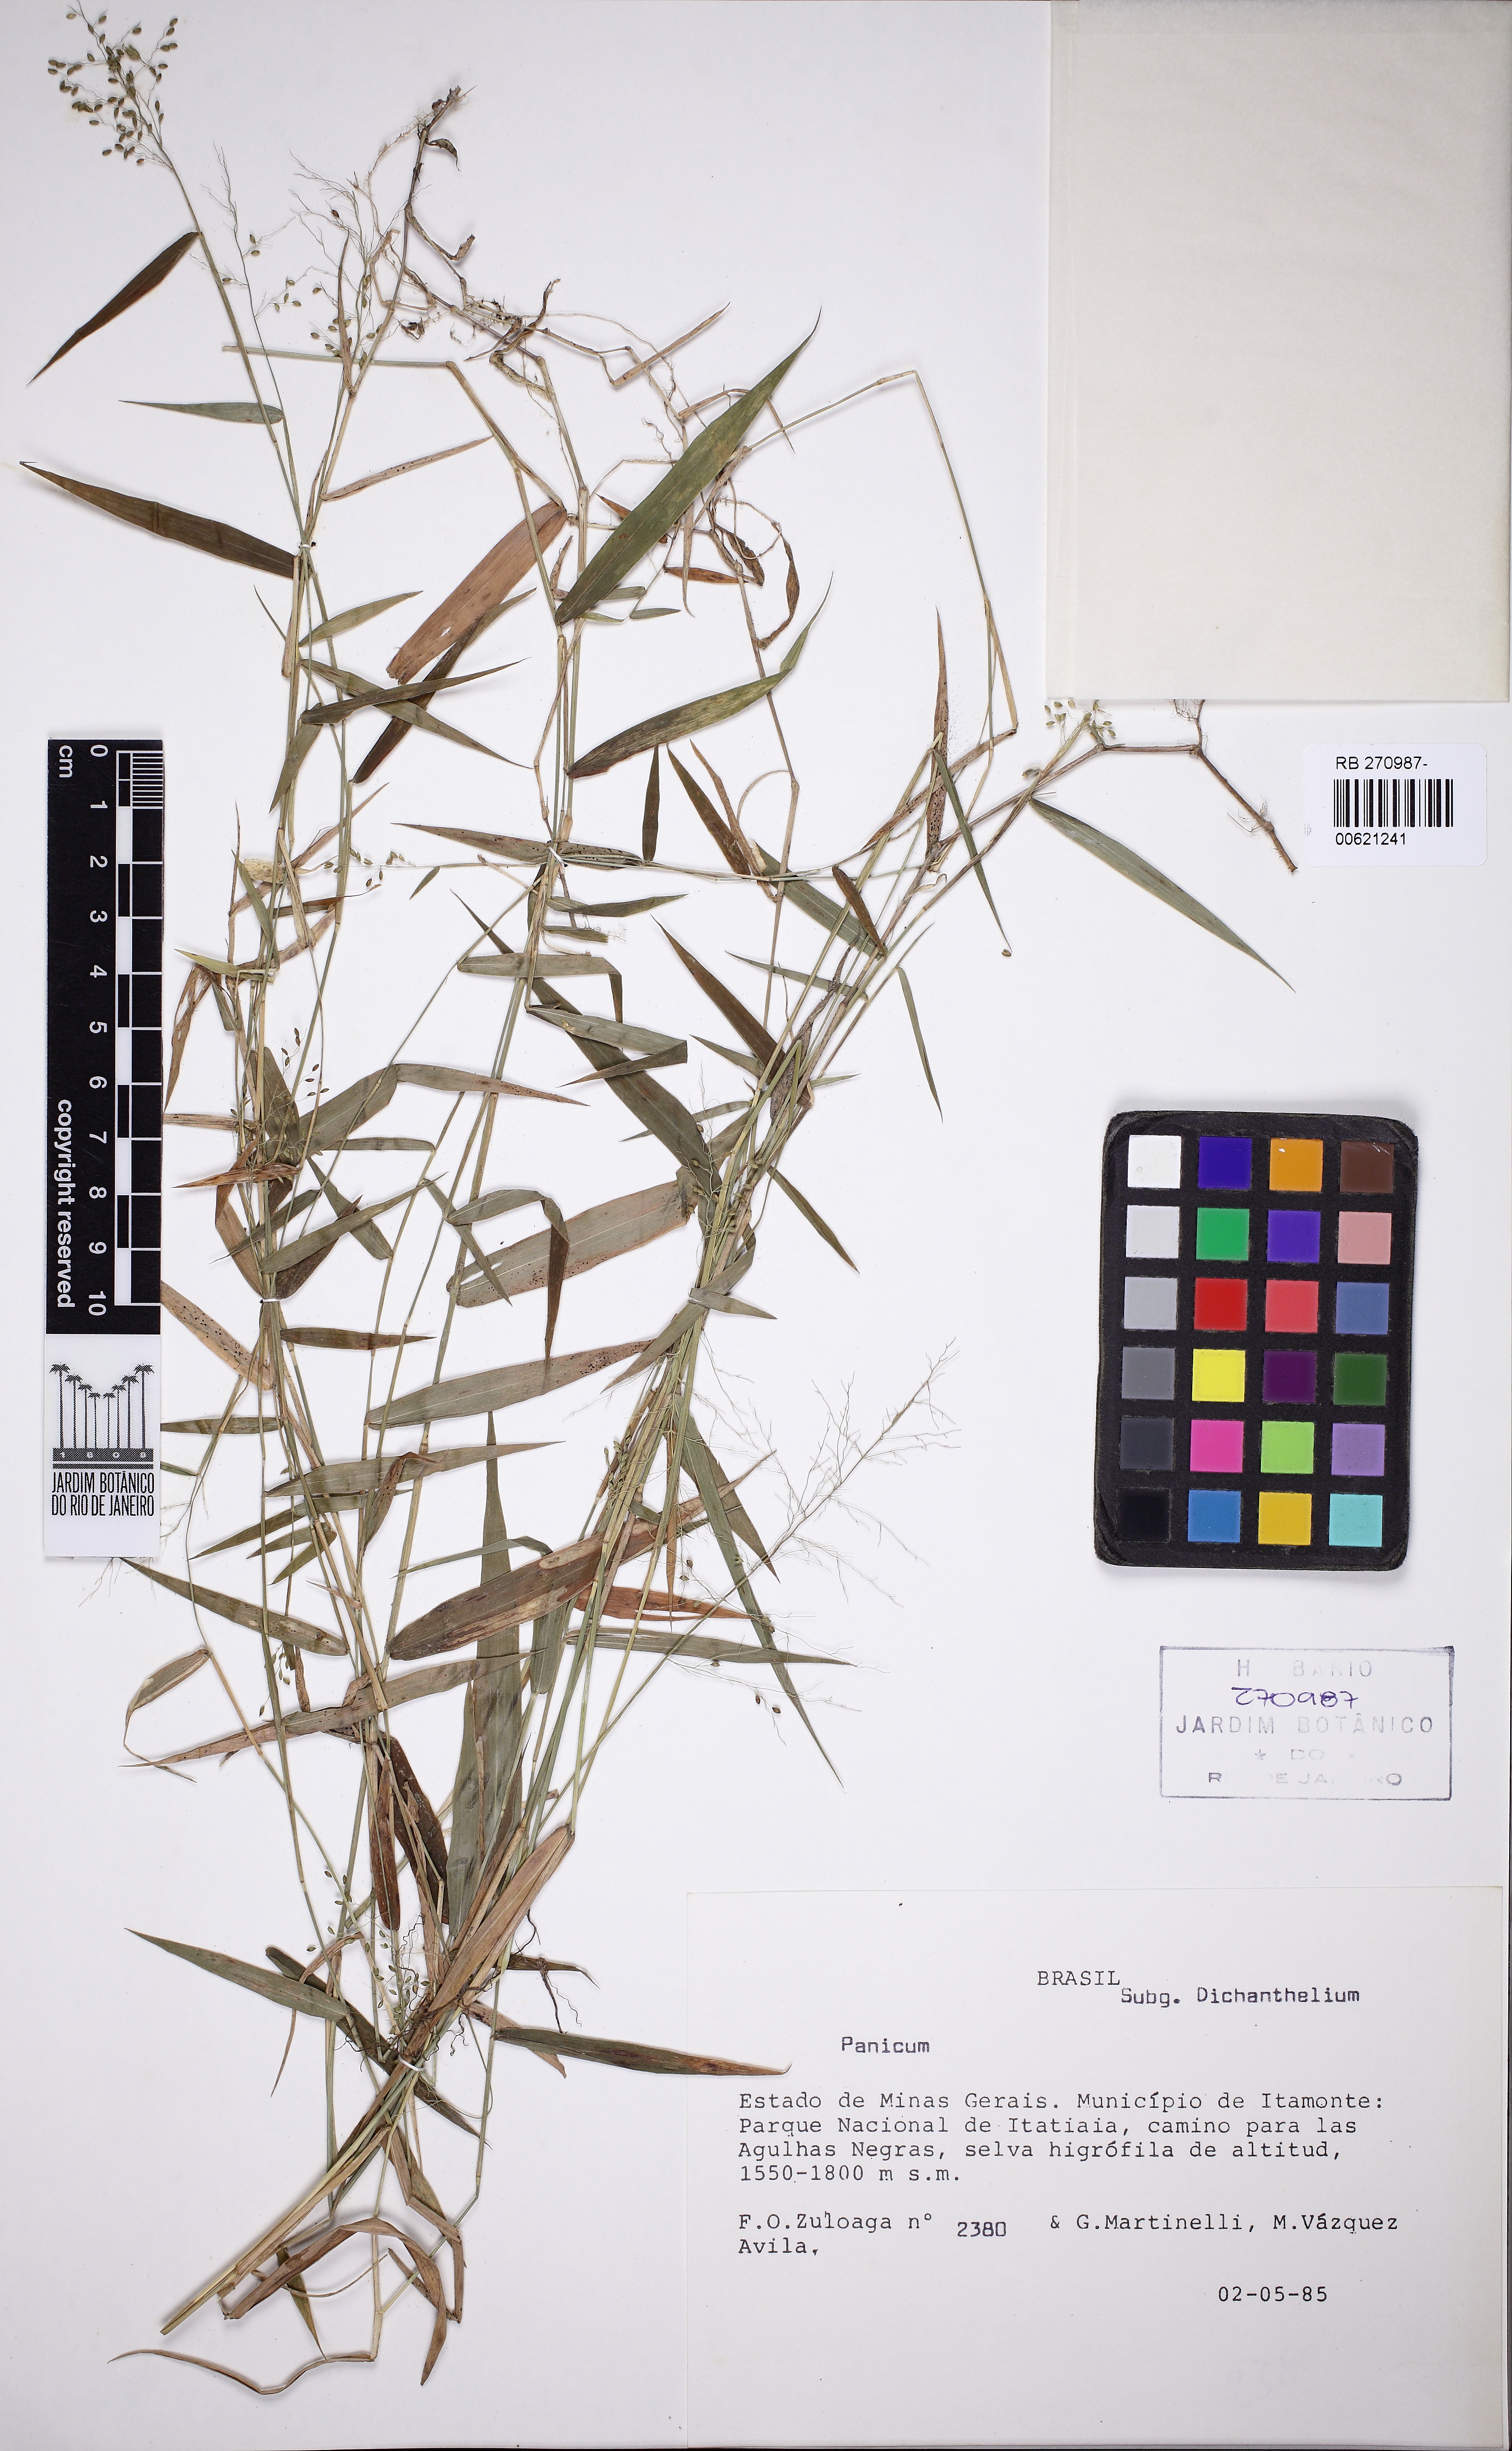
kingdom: Plantae
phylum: Tracheophyta
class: Liliopsida
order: Poales
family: Poaceae
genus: Dichanthelium
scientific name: Dichanthelium sabulorum
